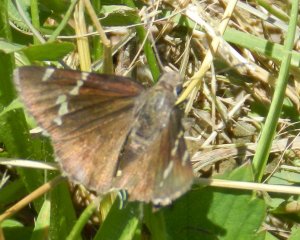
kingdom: Animalia
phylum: Arthropoda
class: Insecta
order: Lepidoptera
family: Hesperiidae
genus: Autochton
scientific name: Autochton
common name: Southern Cloudywing
